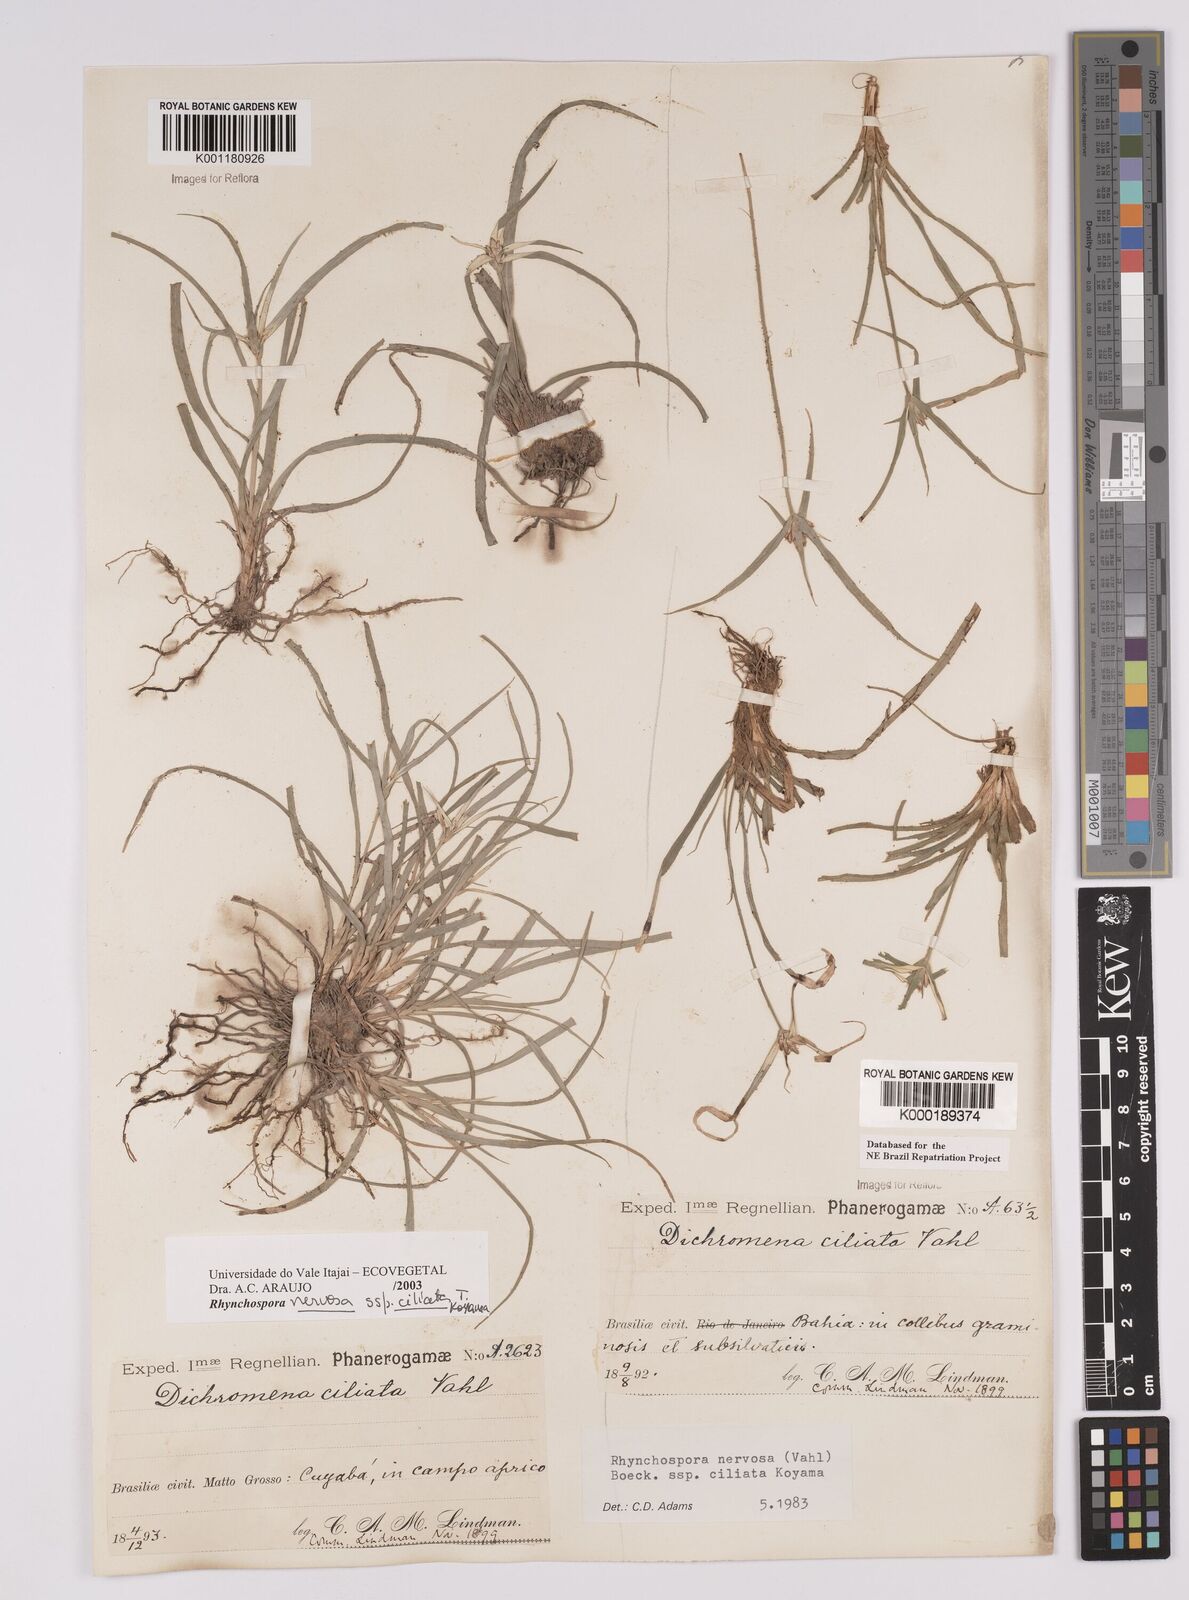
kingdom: Plantae
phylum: Tracheophyta
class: Liliopsida
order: Poales
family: Cyperaceae
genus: Rhynchospora
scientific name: Rhynchospora pura
